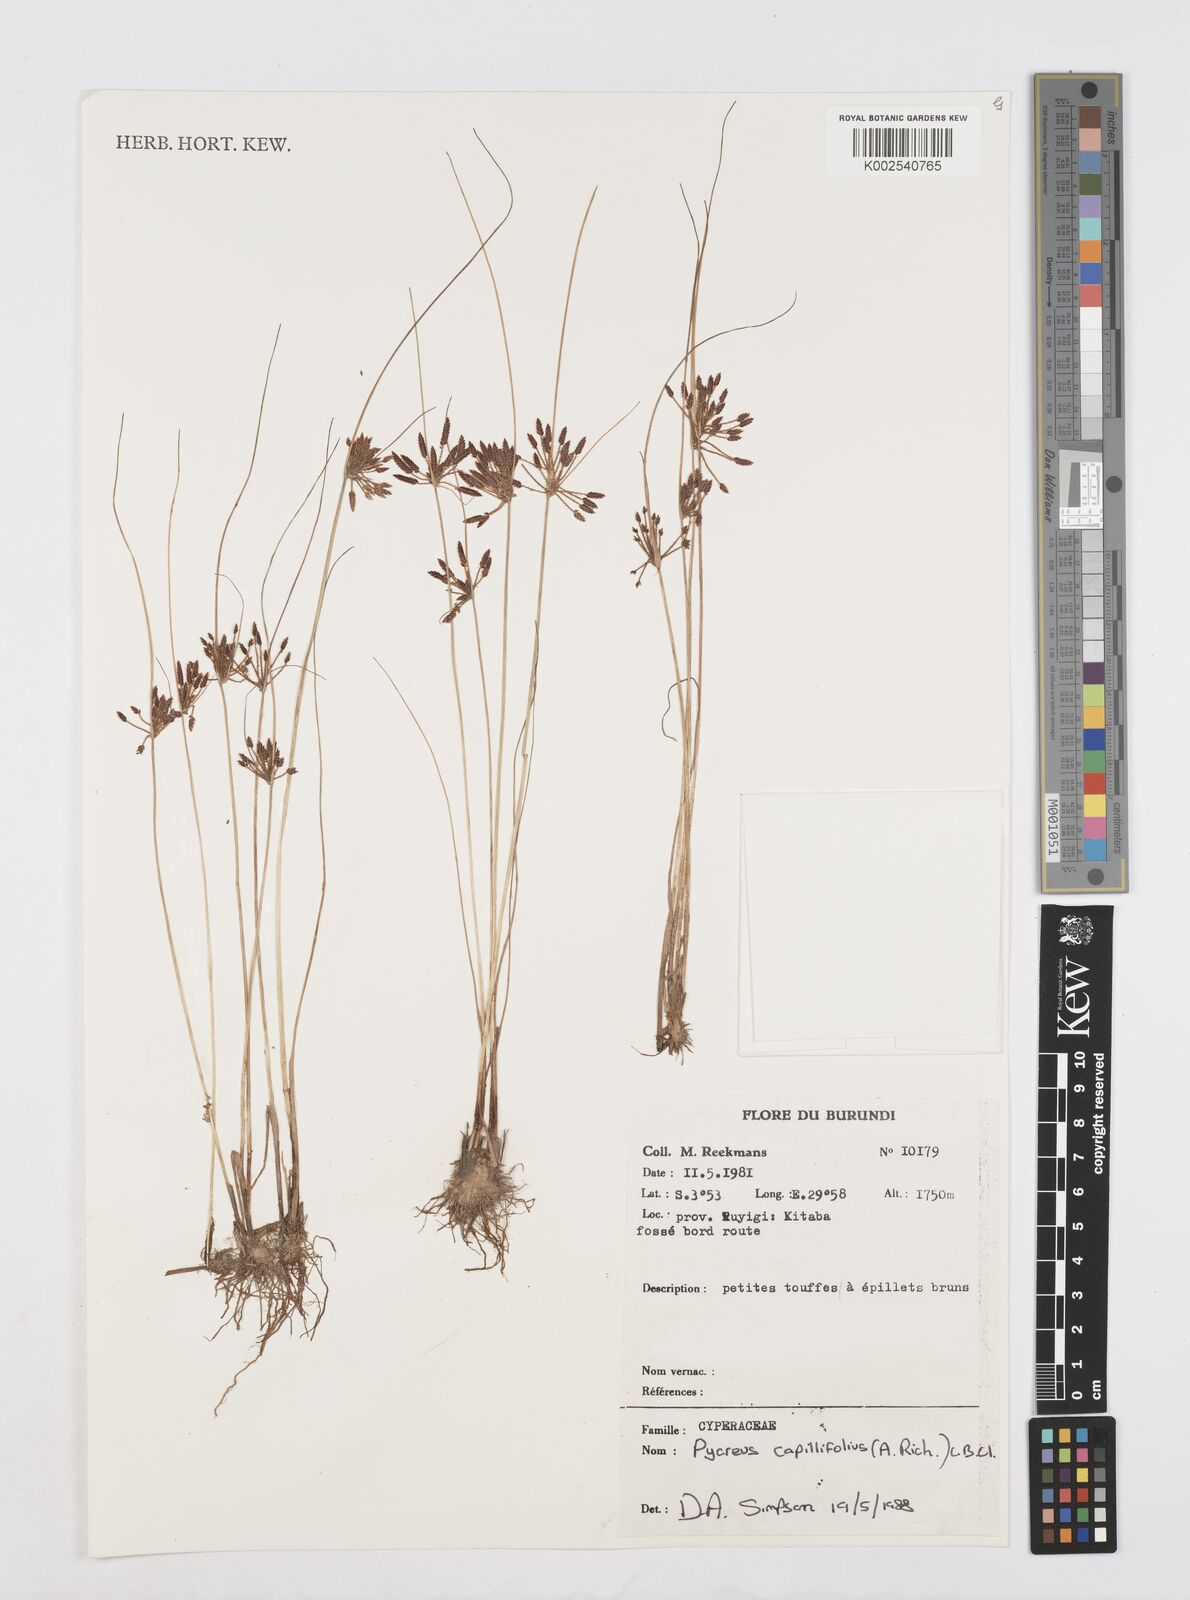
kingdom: Plantae
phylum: Tracheophyta
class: Liliopsida
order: Poales
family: Cyperaceae
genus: Cyperus
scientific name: Cyperus capillifolius
